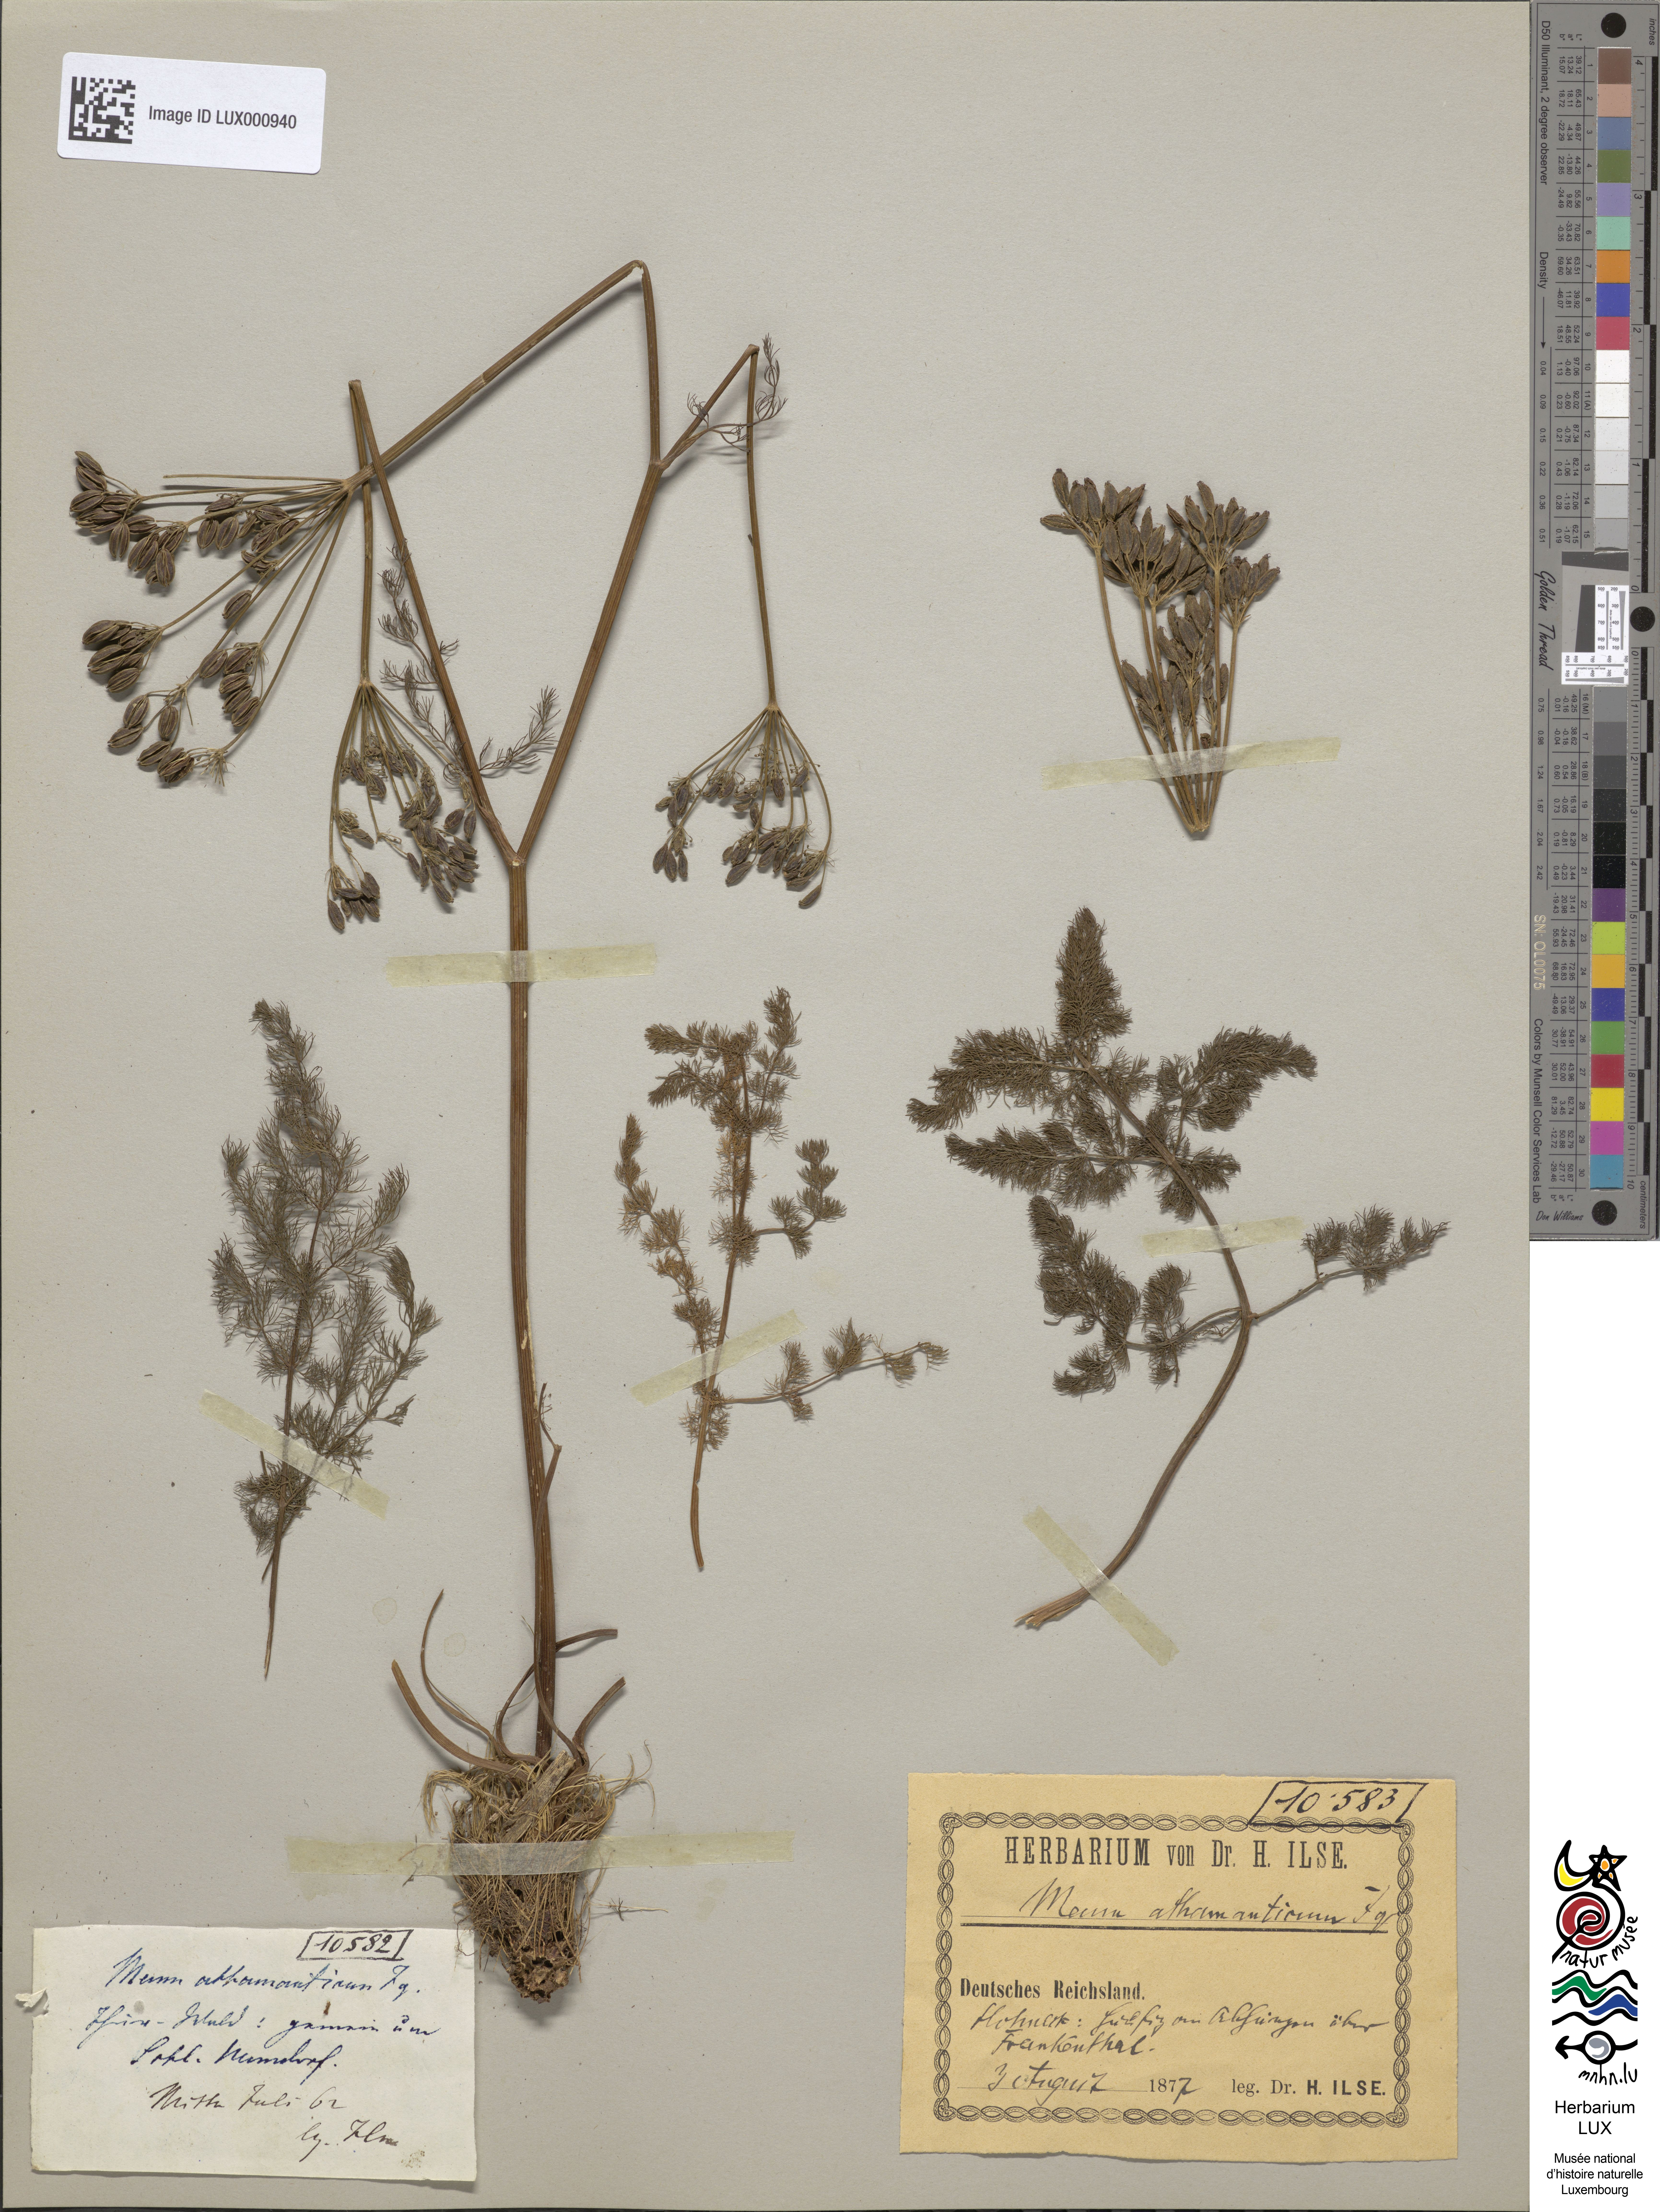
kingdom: Plantae
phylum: Tracheophyta
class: Magnoliopsida
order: Apiales
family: Apiaceae
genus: Meum
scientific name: Meum athamanticum
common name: Spignel
